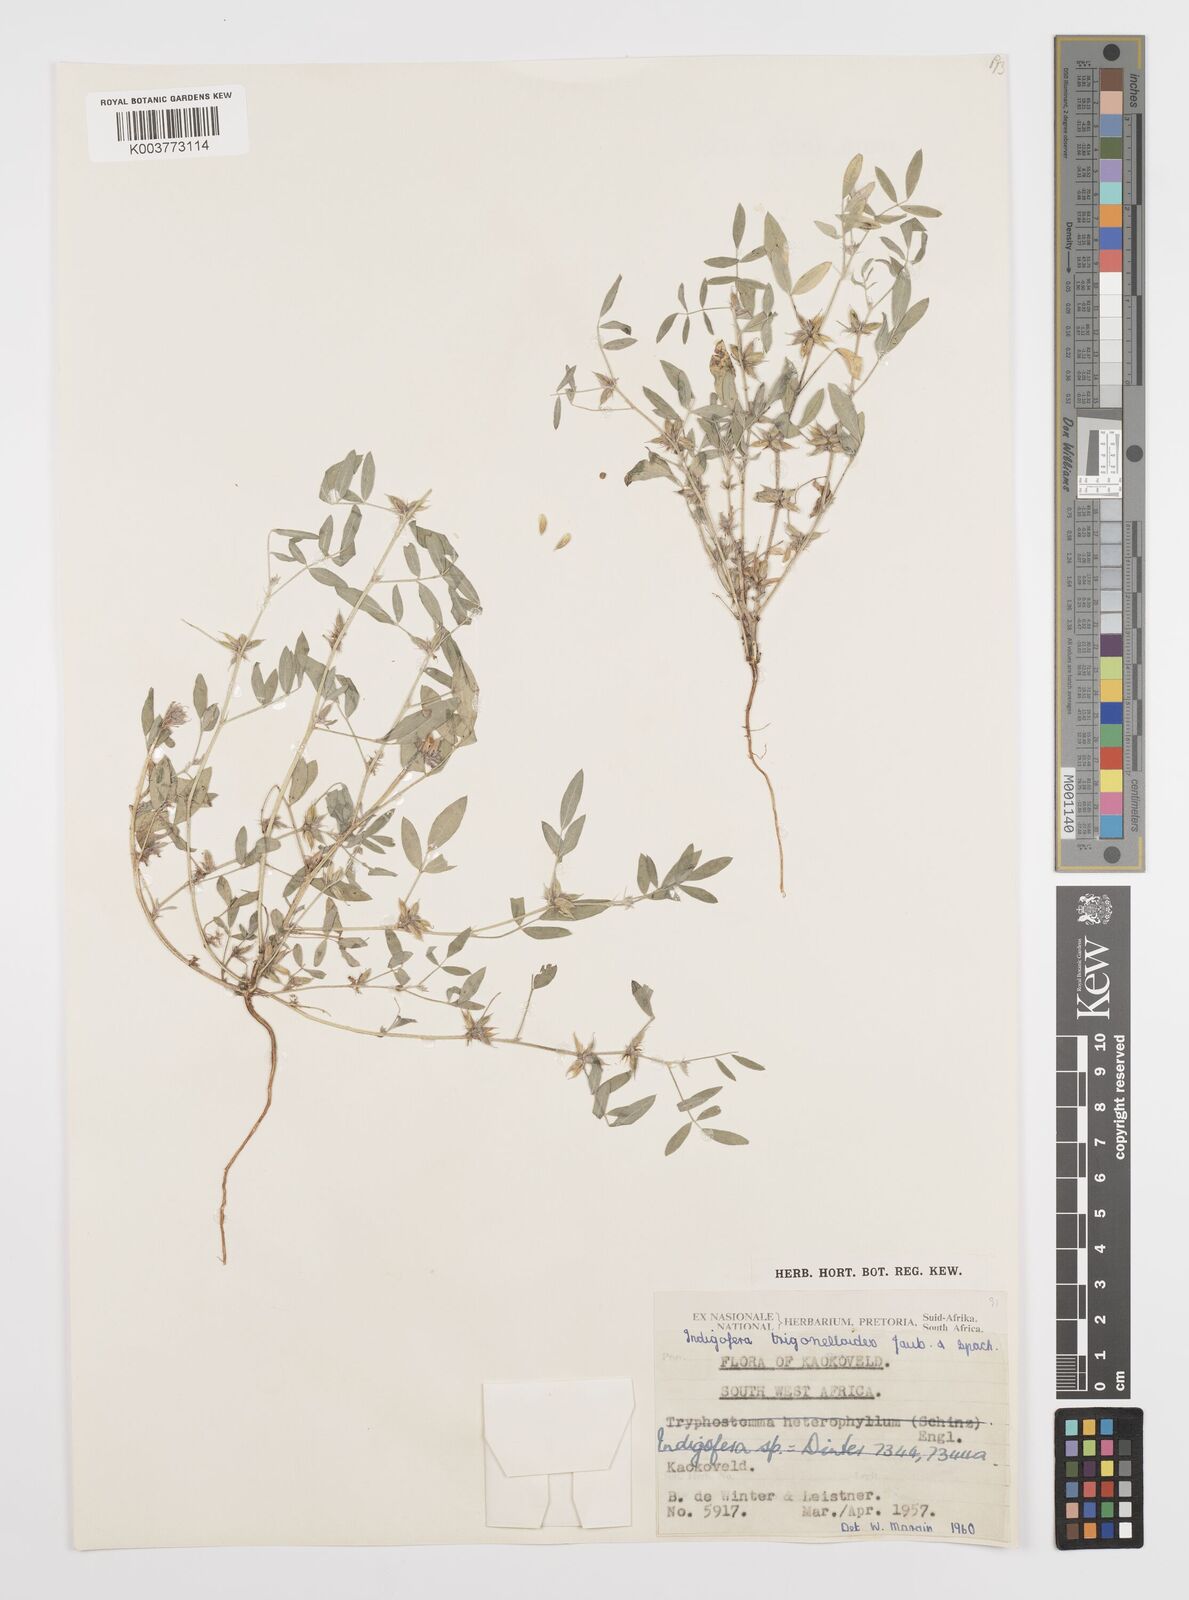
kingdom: Plantae
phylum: Tracheophyta
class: Magnoliopsida
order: Fabales
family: Fabaceae
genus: Indigofera
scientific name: Indigofera trigonelloides
